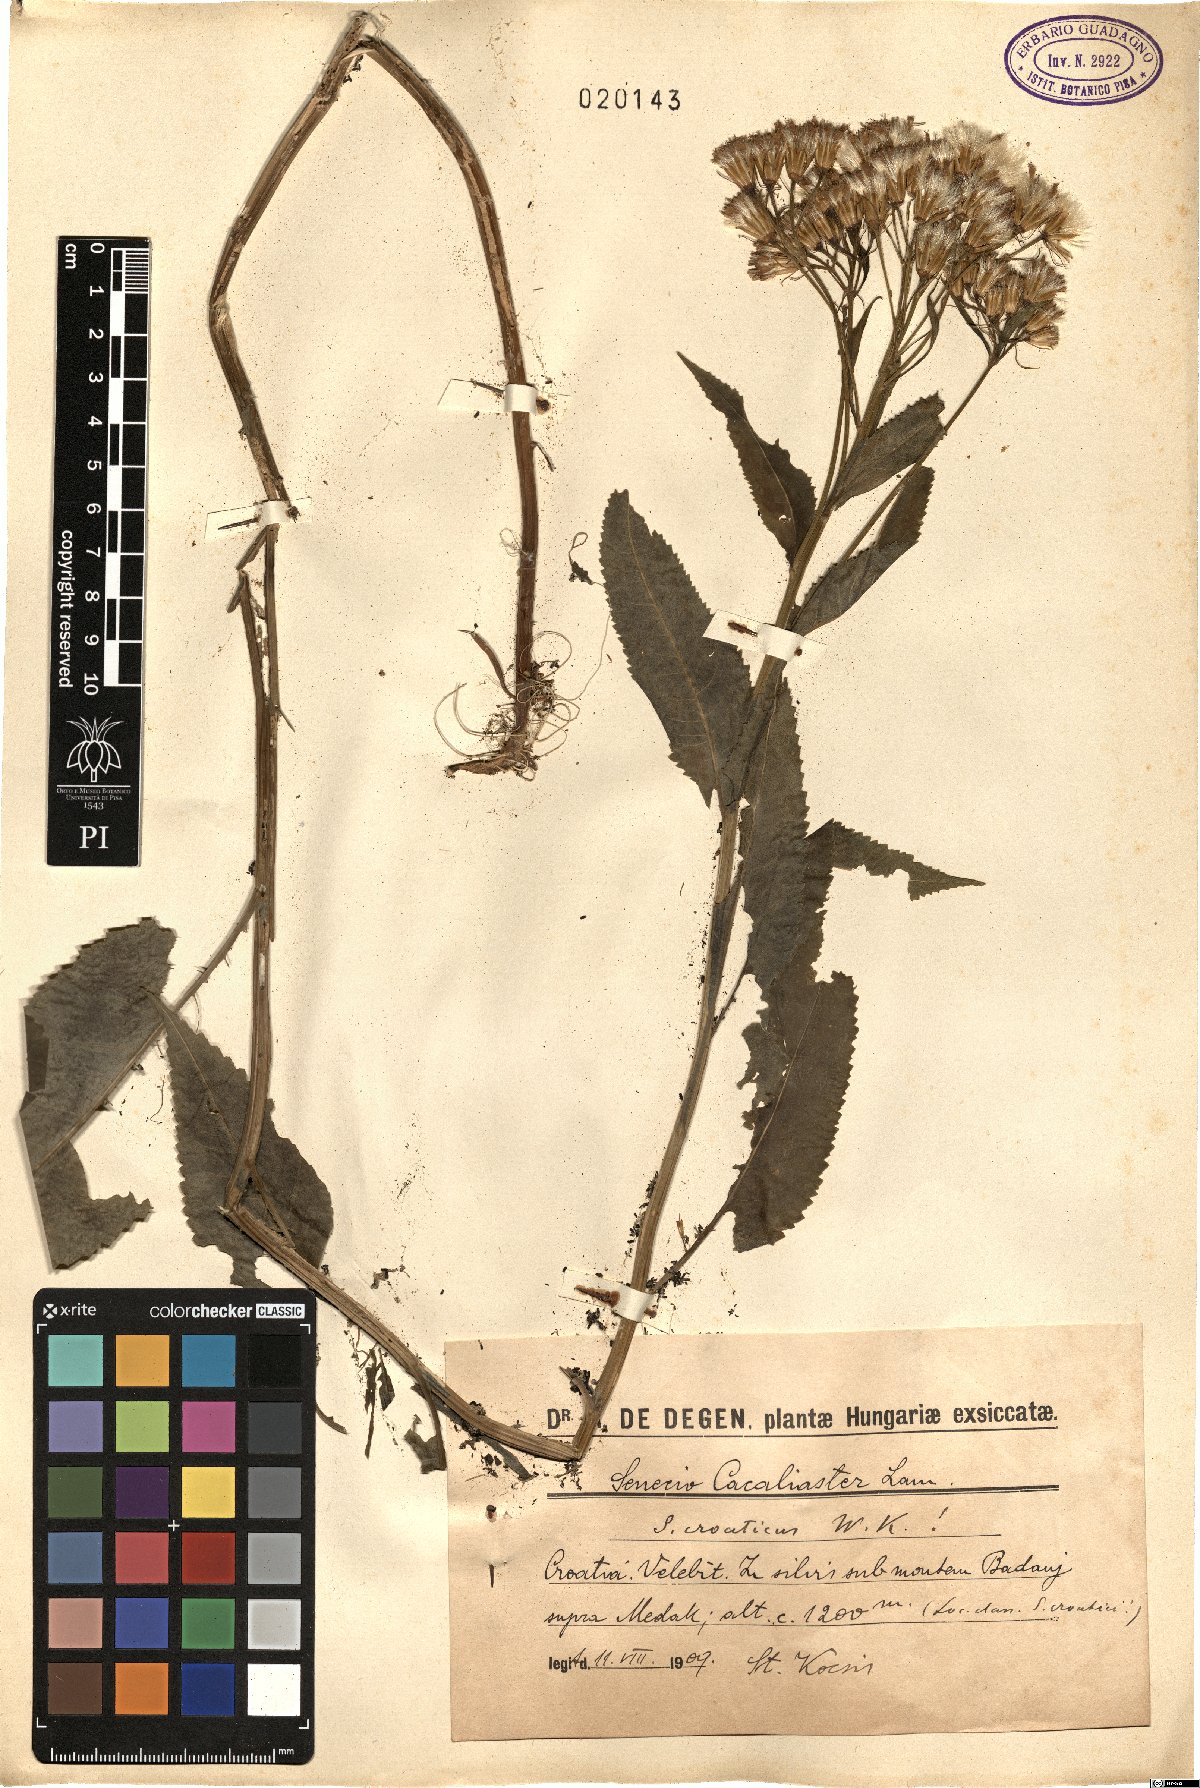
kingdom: Plantae
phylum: Tracheophyta
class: Magnoliopsida
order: Asterales
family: Asteraceae
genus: Senecio
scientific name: Senecio cacaliaster
